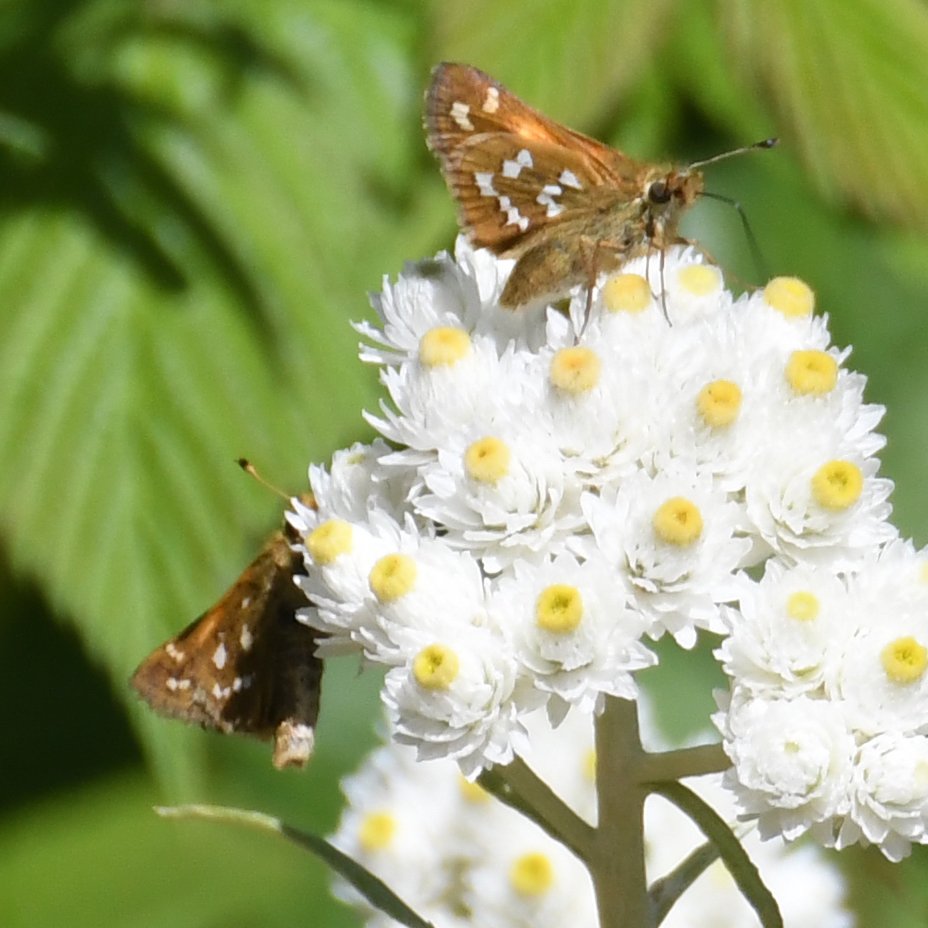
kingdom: Animalia
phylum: Arthropoda
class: Insecta
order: Lepidoptera
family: Hesperiidae
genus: Hesperia
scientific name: Hesperia comma
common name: Common Branded Skipper
